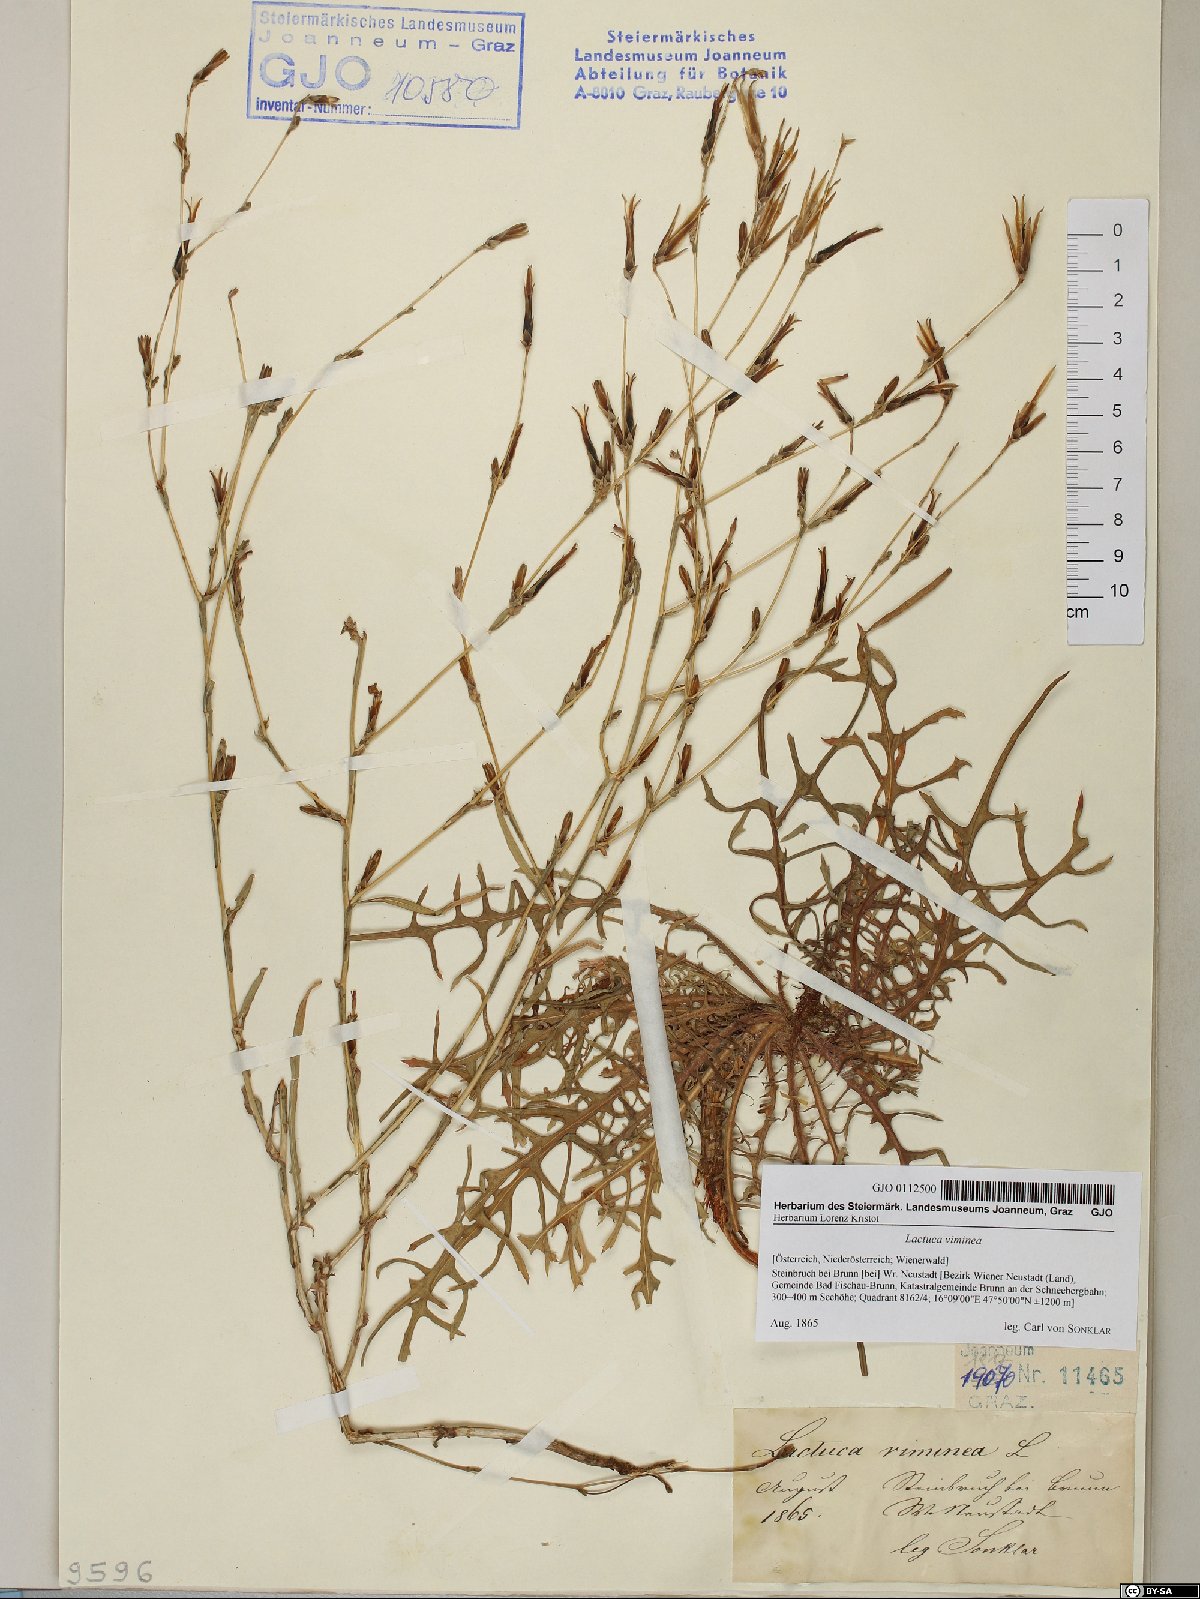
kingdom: Plantae
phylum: Tracheophyta
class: Magnoliopsida
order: Asterales
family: Asteraceae
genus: Lactuca
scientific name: Lactuca viminea
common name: Pliant lettuce
